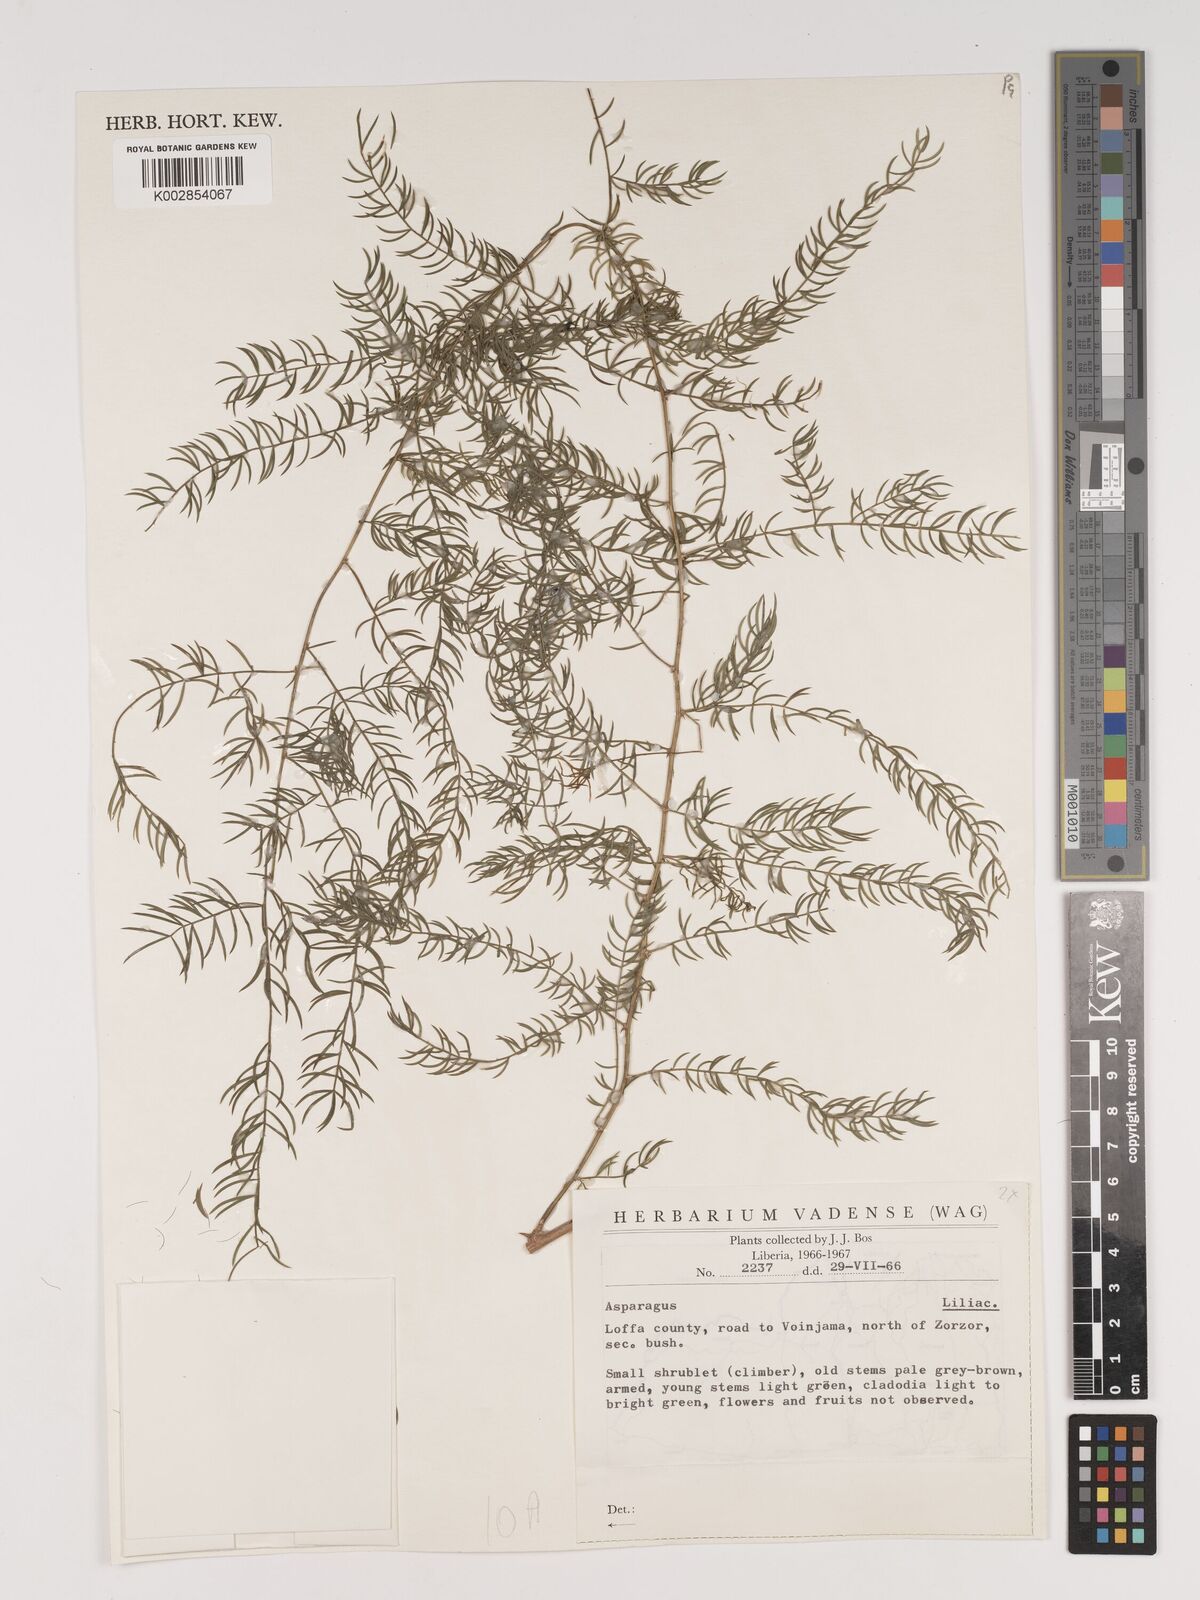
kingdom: Plantae
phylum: Tracheophyta
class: Liliopsida
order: Asparagales
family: Asparagaceae
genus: Asparagus
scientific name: Asparagus
